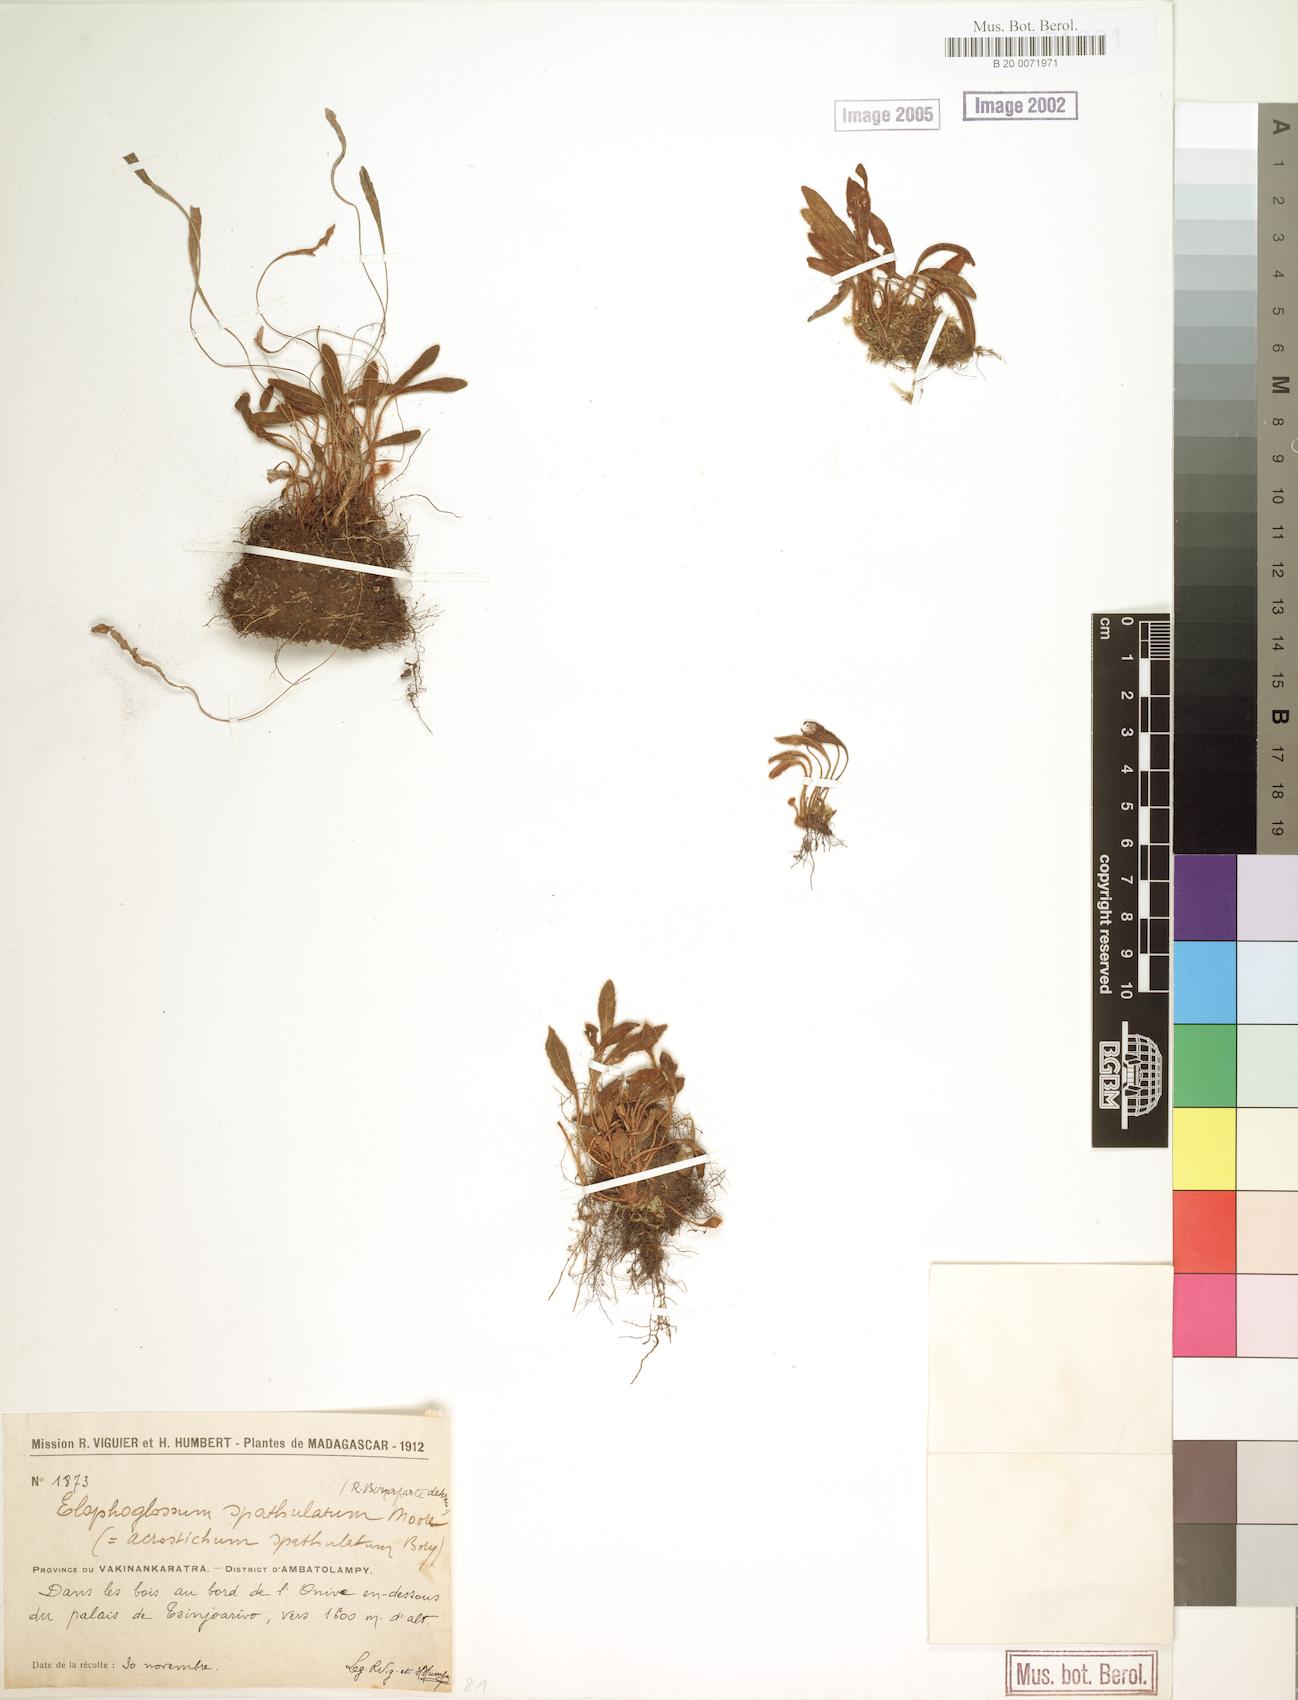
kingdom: Plantae
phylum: Tracheophyta
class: Polypodiopsida
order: Polypodiales
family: Dryopteridaceae
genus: Elaphoglossum
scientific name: Elaphoglossum sieberi
